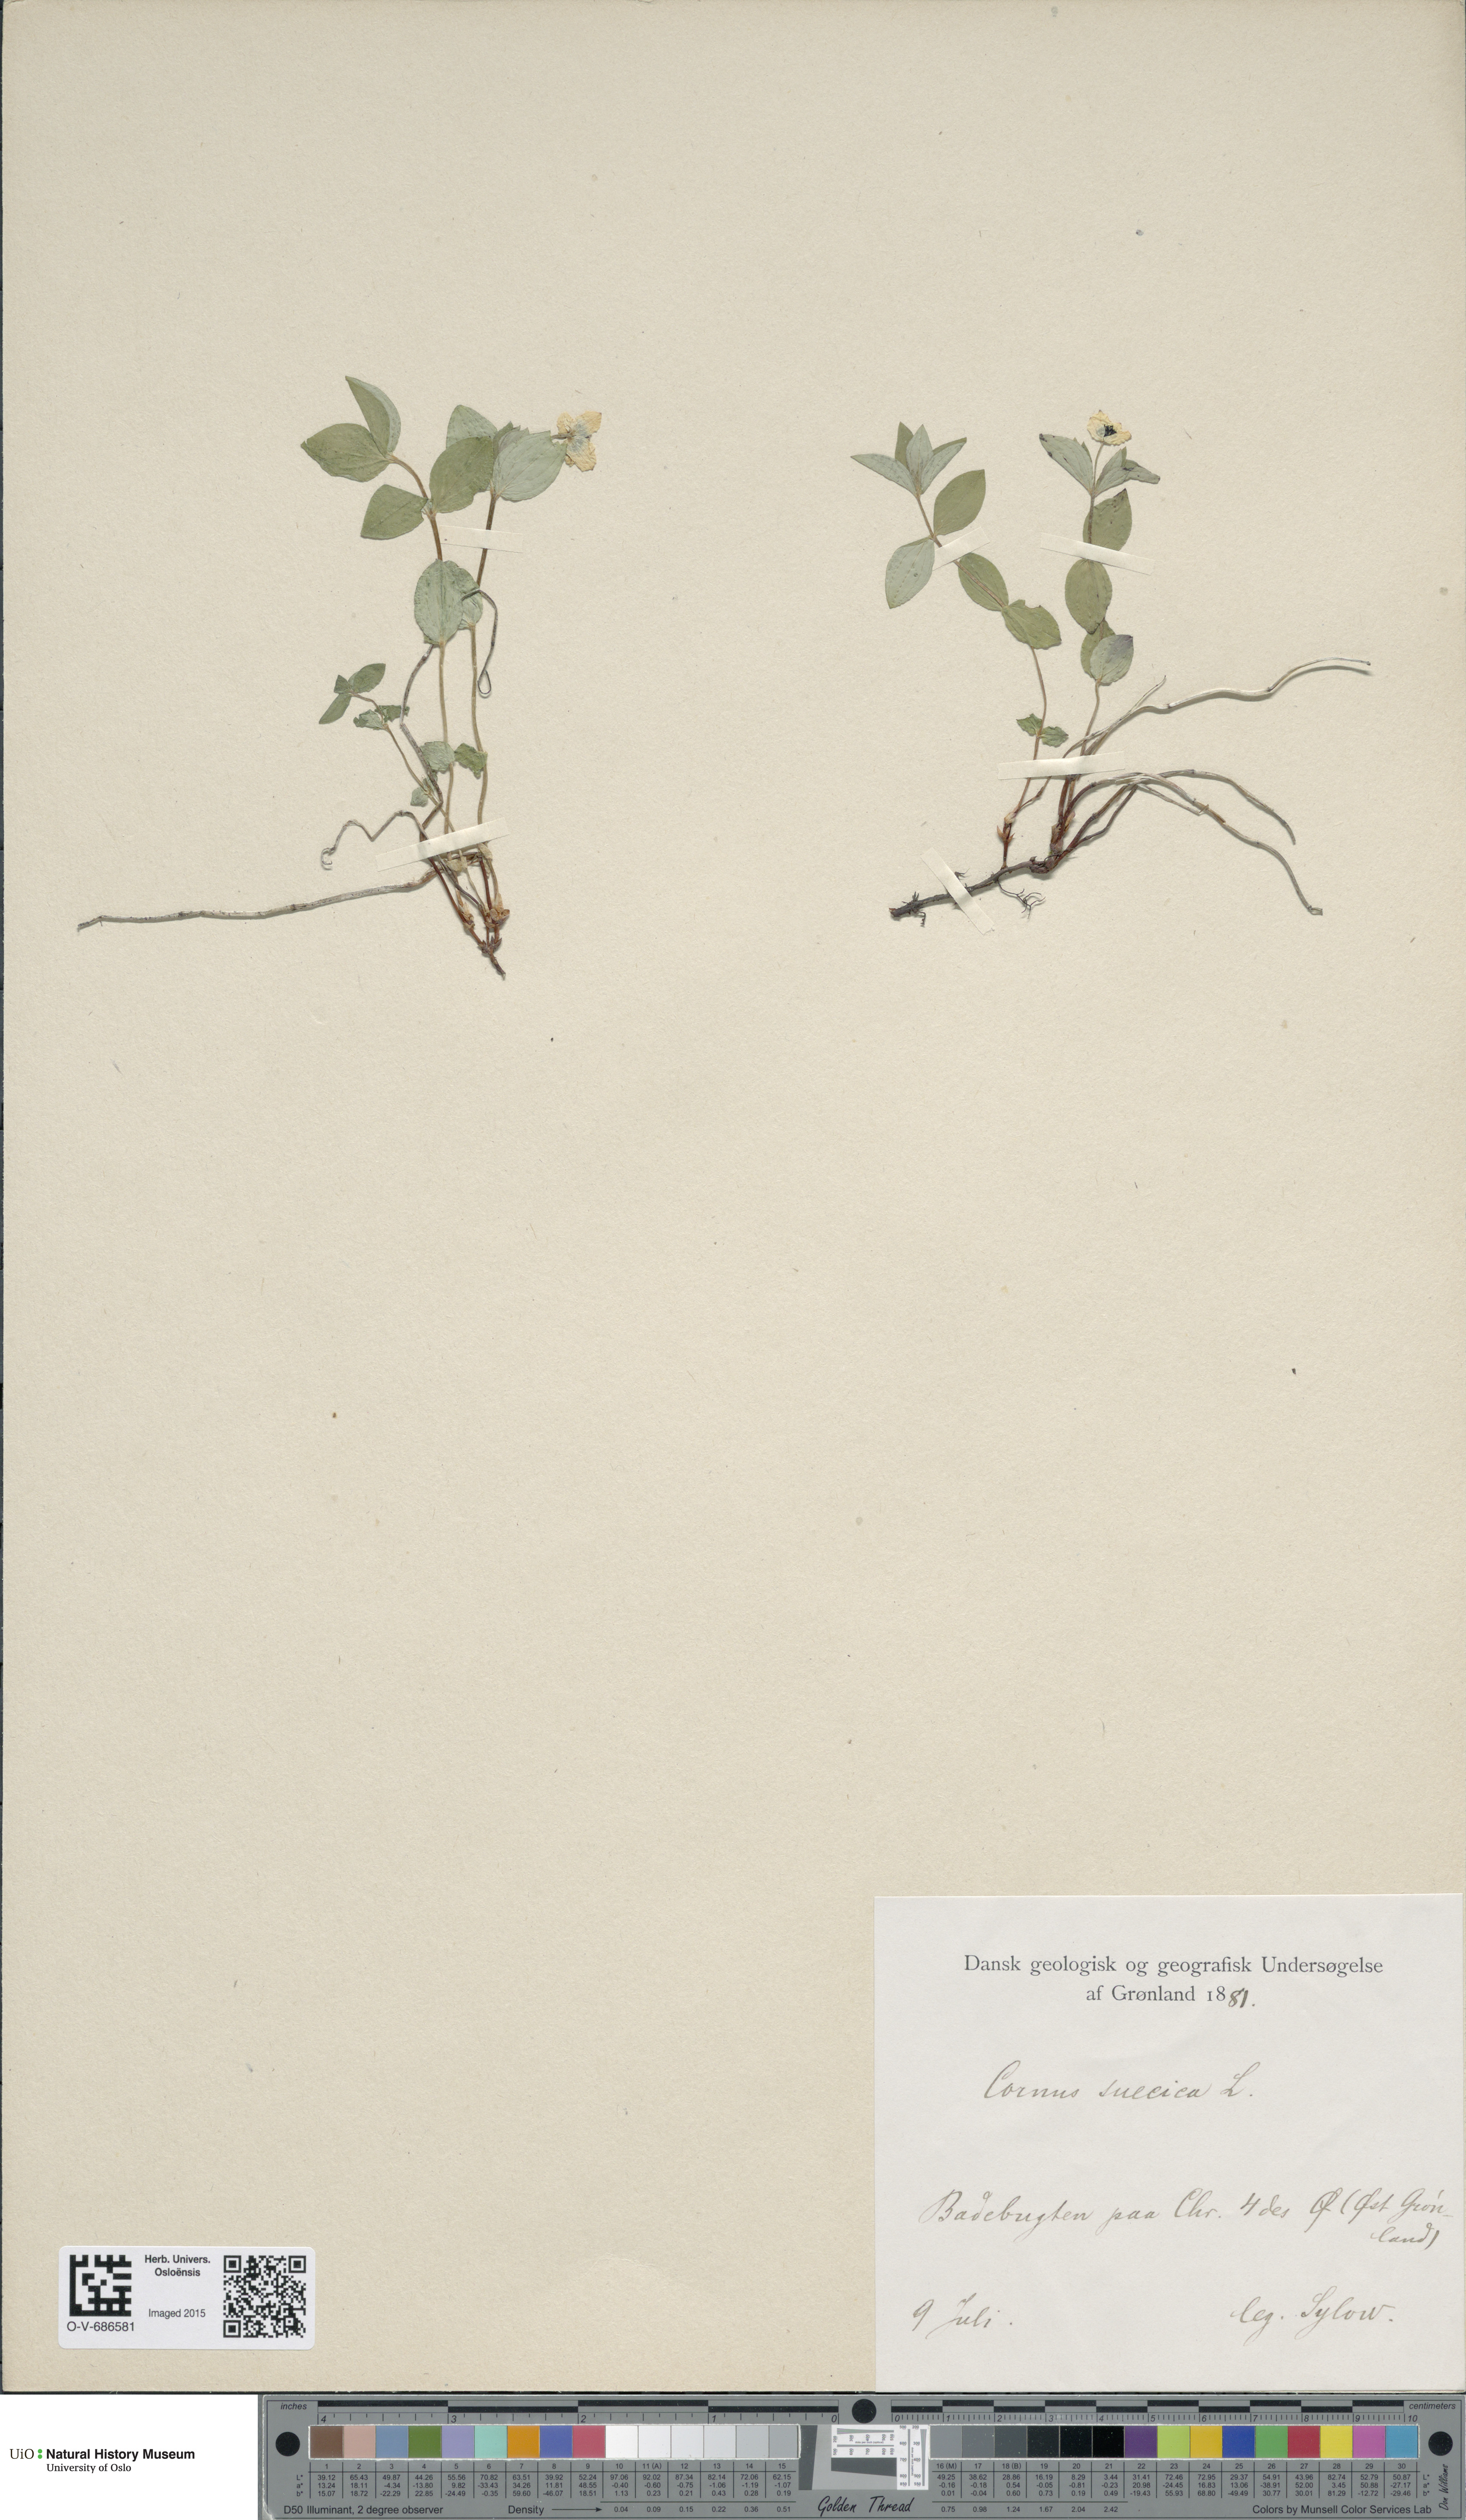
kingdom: Plantae
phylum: Tracheophyta
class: Magnoliopsida
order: Cornales
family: Cornaceae
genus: Cornus
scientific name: Cornus suecica
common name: Dwarf cornel
